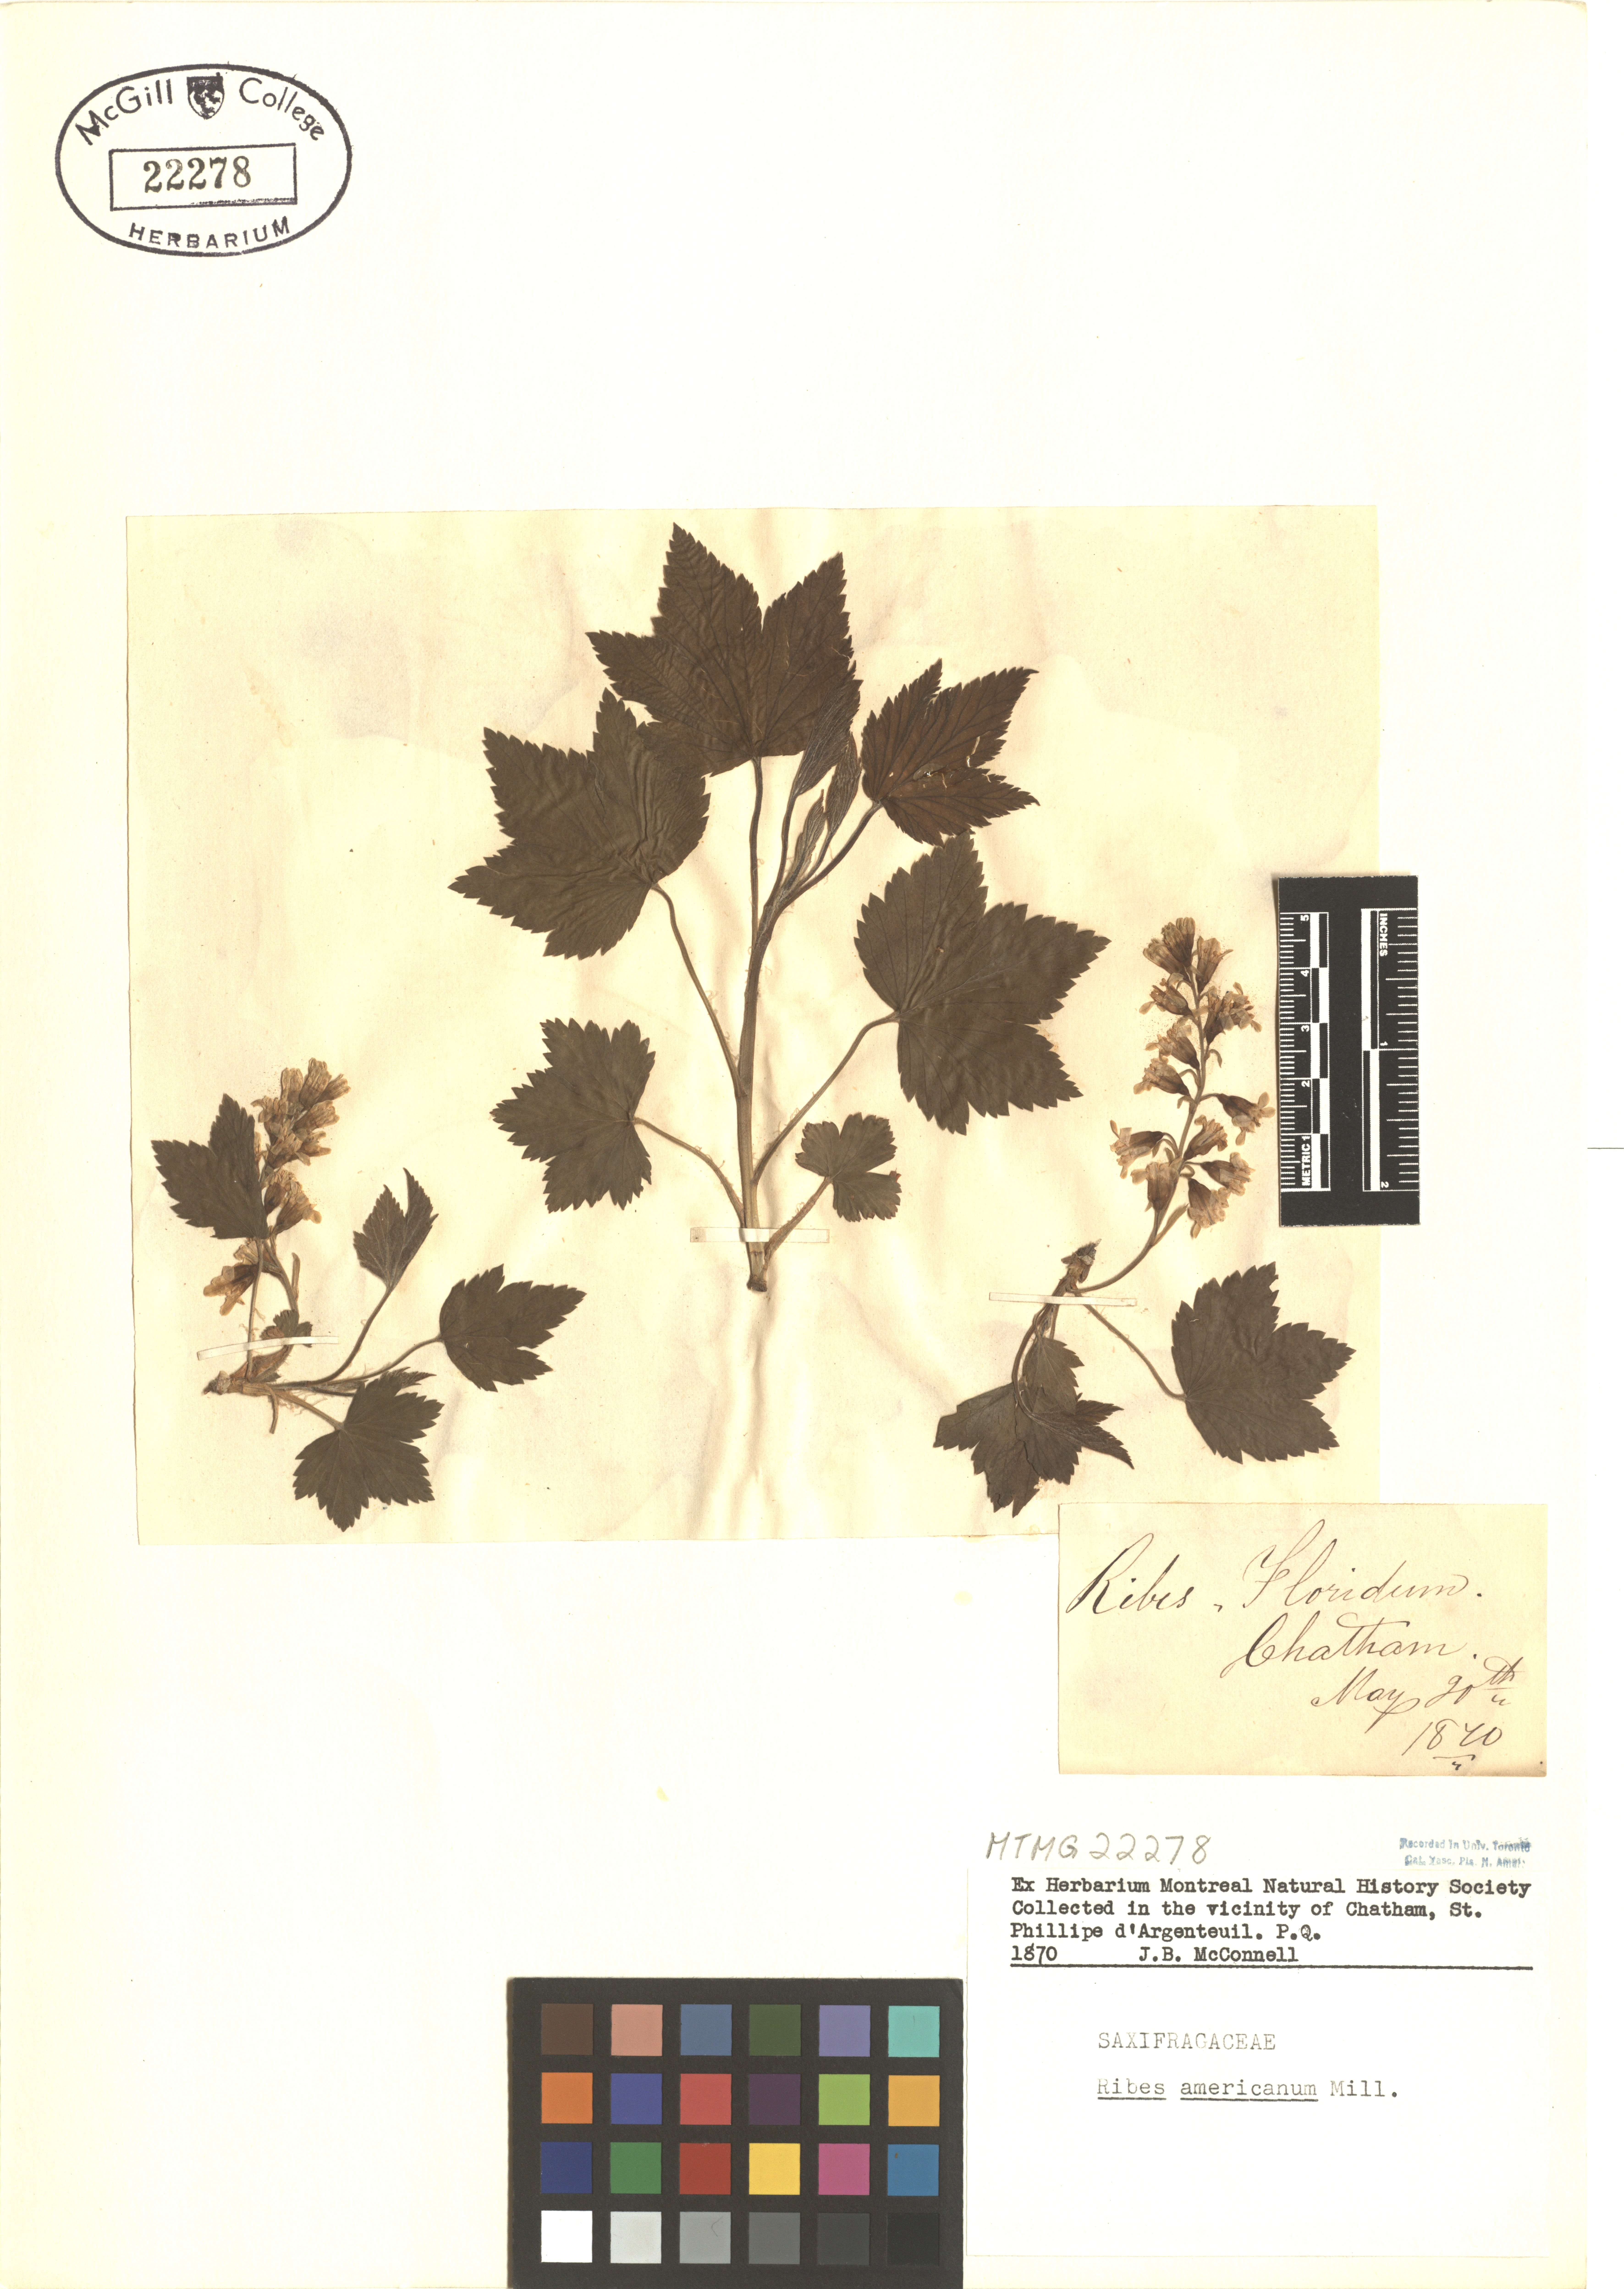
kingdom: Plantae
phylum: Tracheophyta
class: Magnoliopsida
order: Saxifragales
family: Grossulariaceae
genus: Ribes
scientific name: Ribes americanum
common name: American black currant
